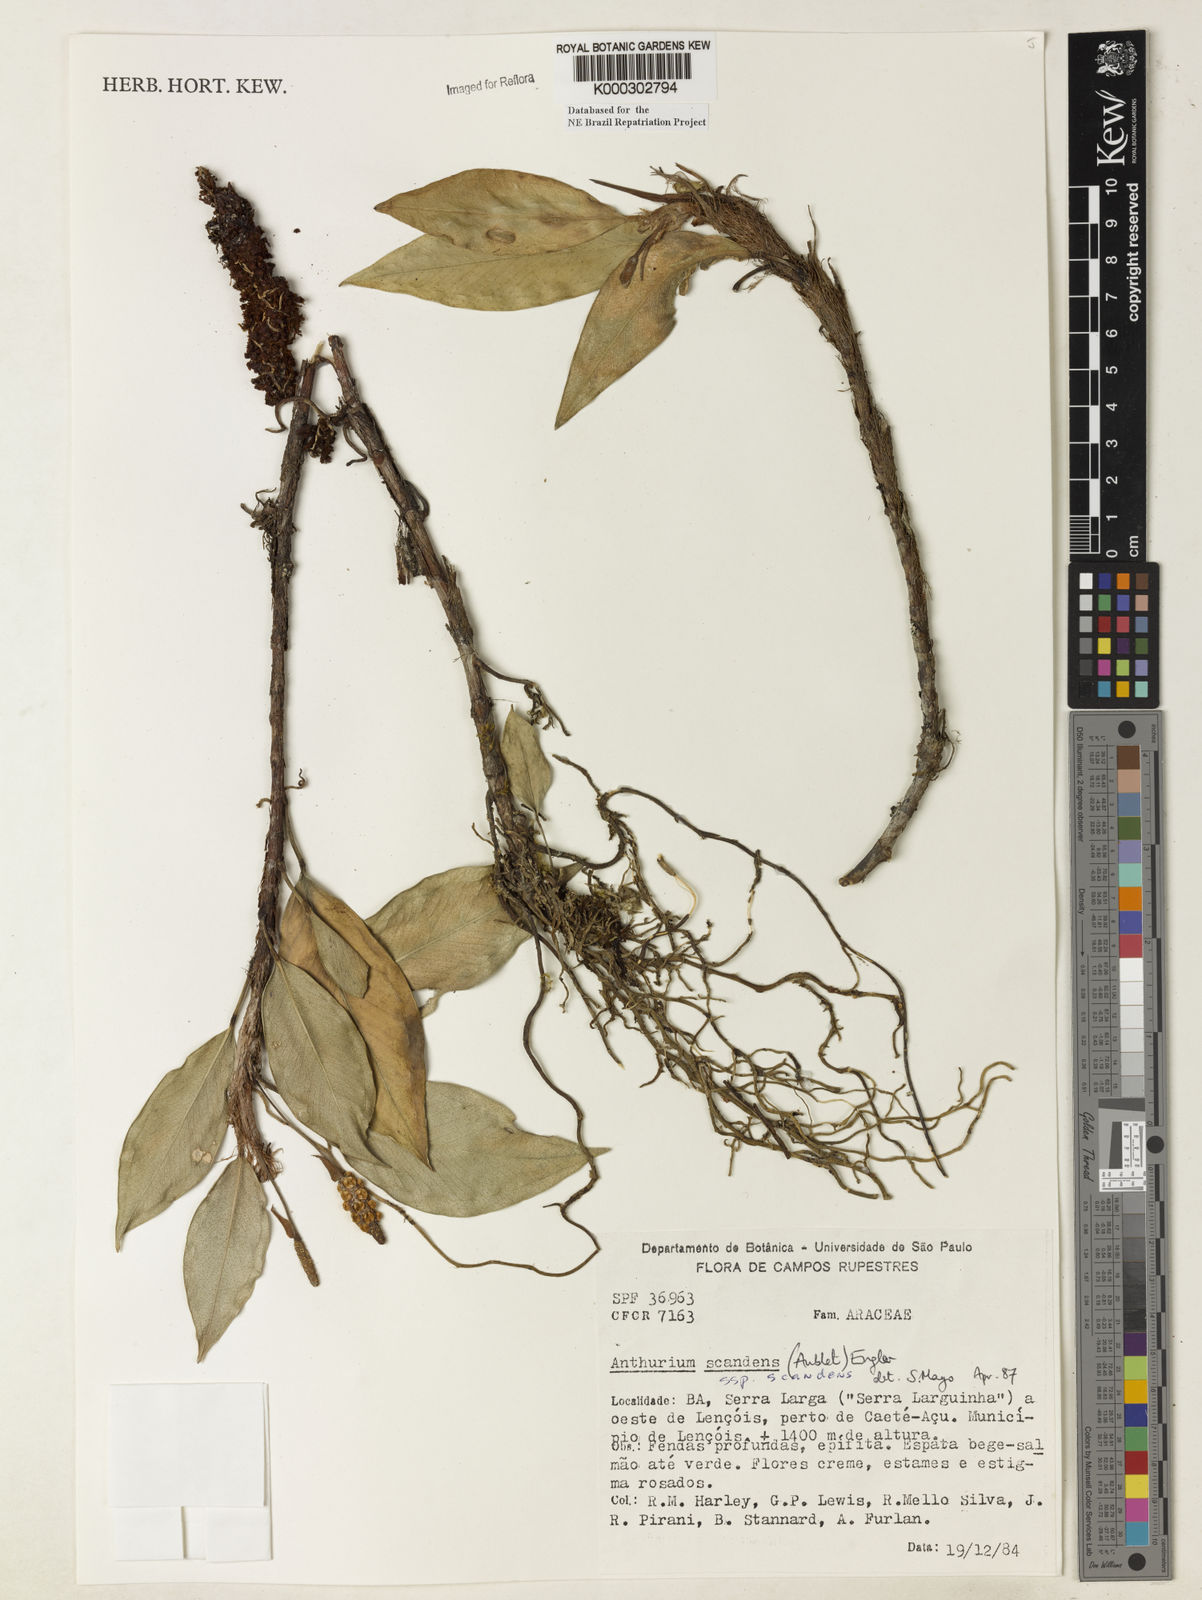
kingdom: Plantae
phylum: Tracheophyta
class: Liliopsida
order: Alismatales
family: Araceae
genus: Anthurium
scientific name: Anthurium scandens
